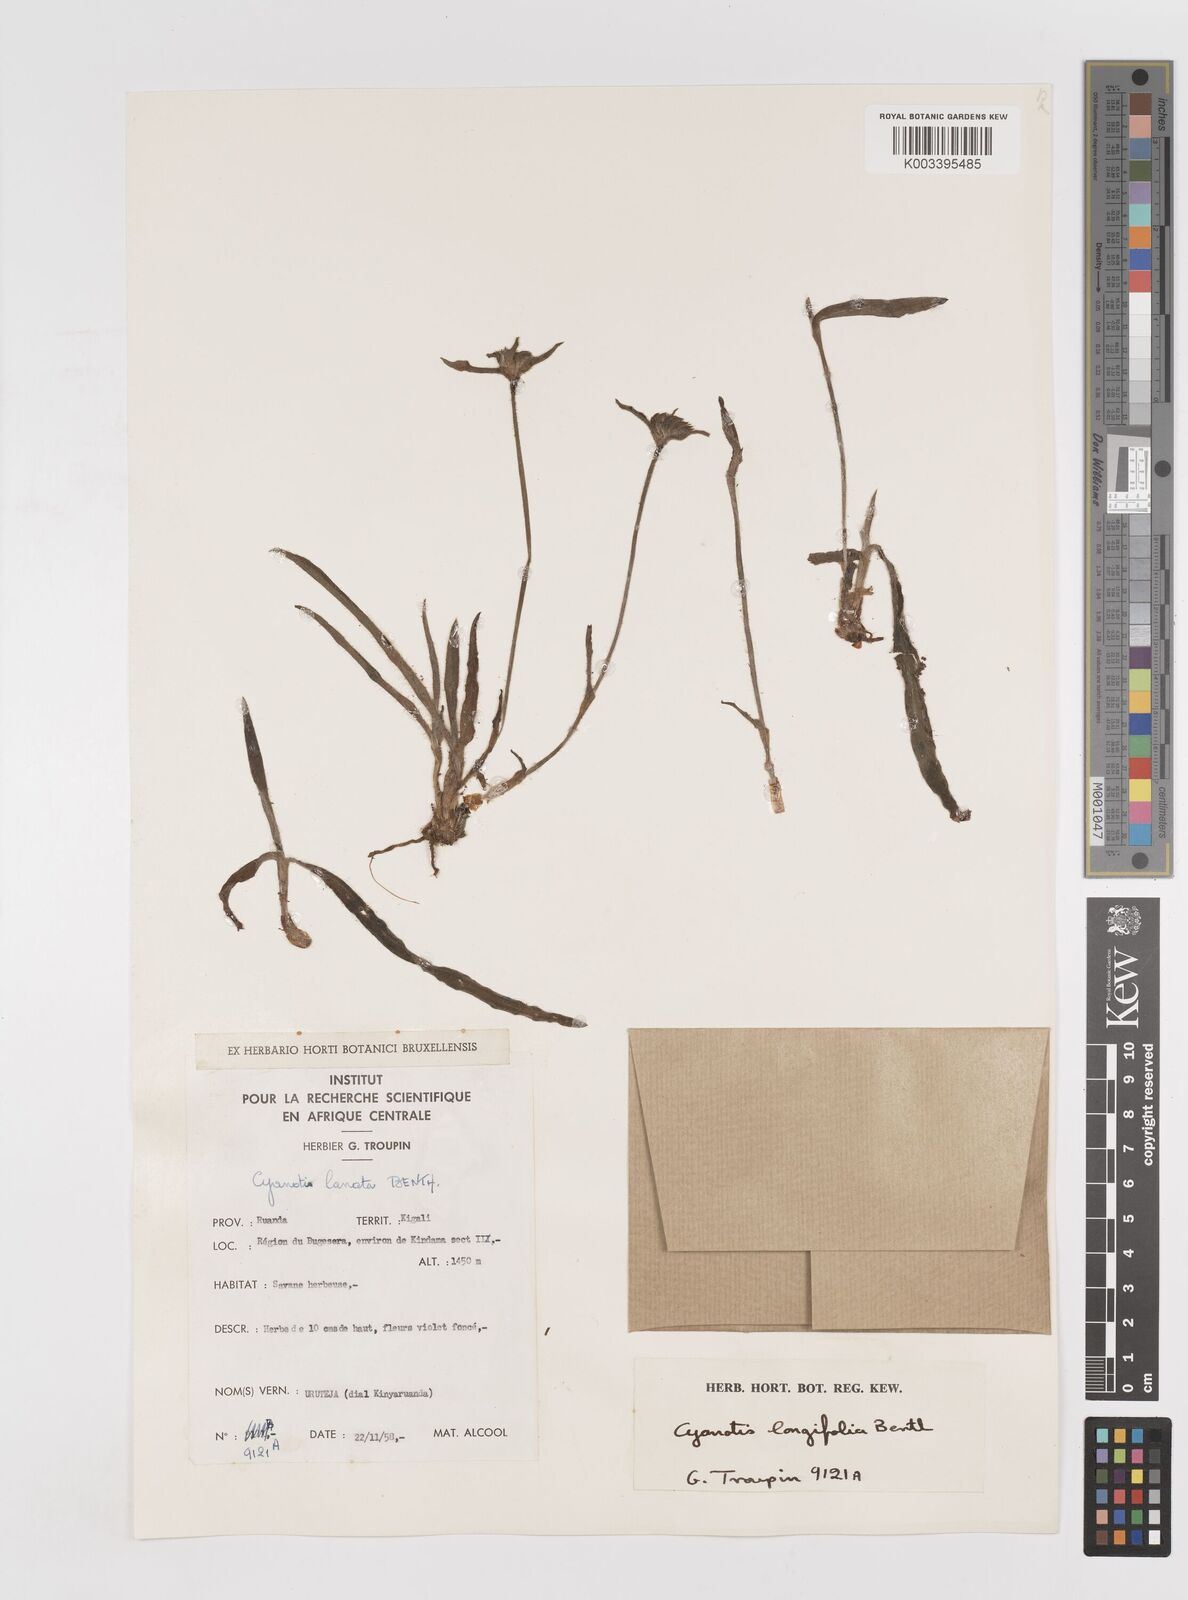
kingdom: Plantae
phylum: Tracheophyta
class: Liliopsida
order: Commelinales
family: Commelinaceae
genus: Cyanotis
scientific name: Cyanotis longifolia
